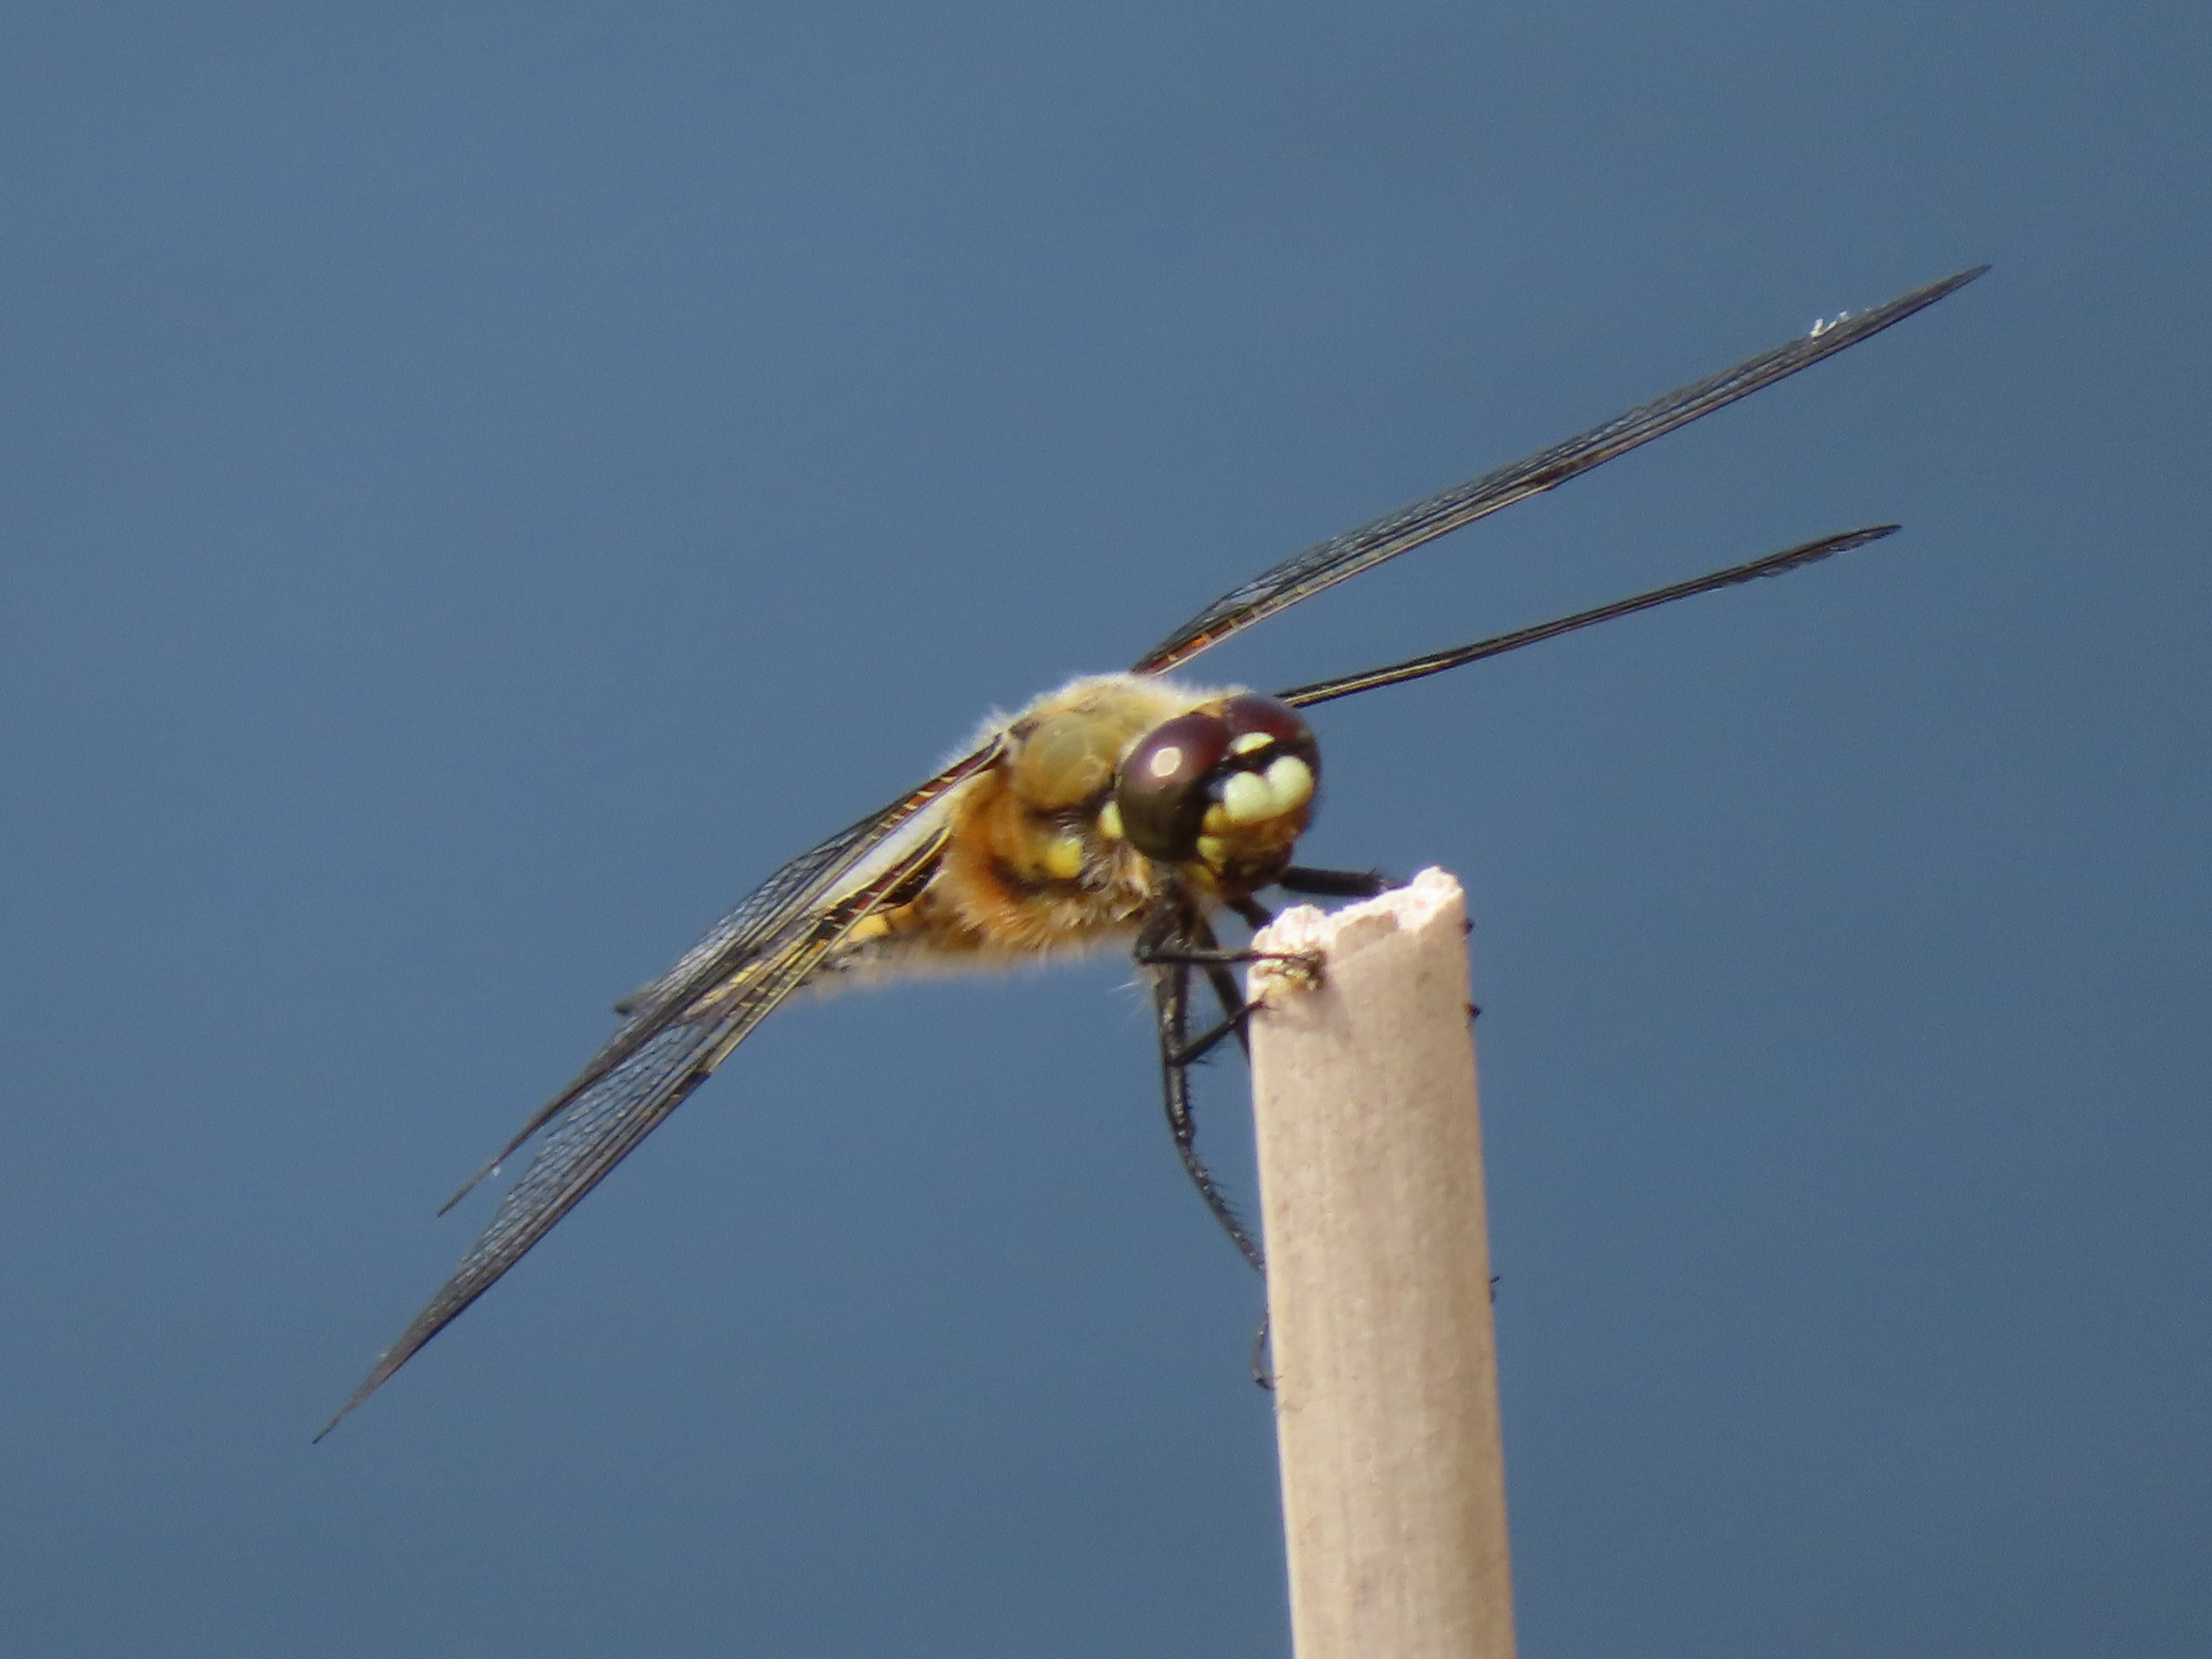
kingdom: Animalia
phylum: Arthropoda
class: Insecta
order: Odonata
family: Libellulidae
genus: Libellula
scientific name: Libellula quadrimaculata
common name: Fireplettet libel
